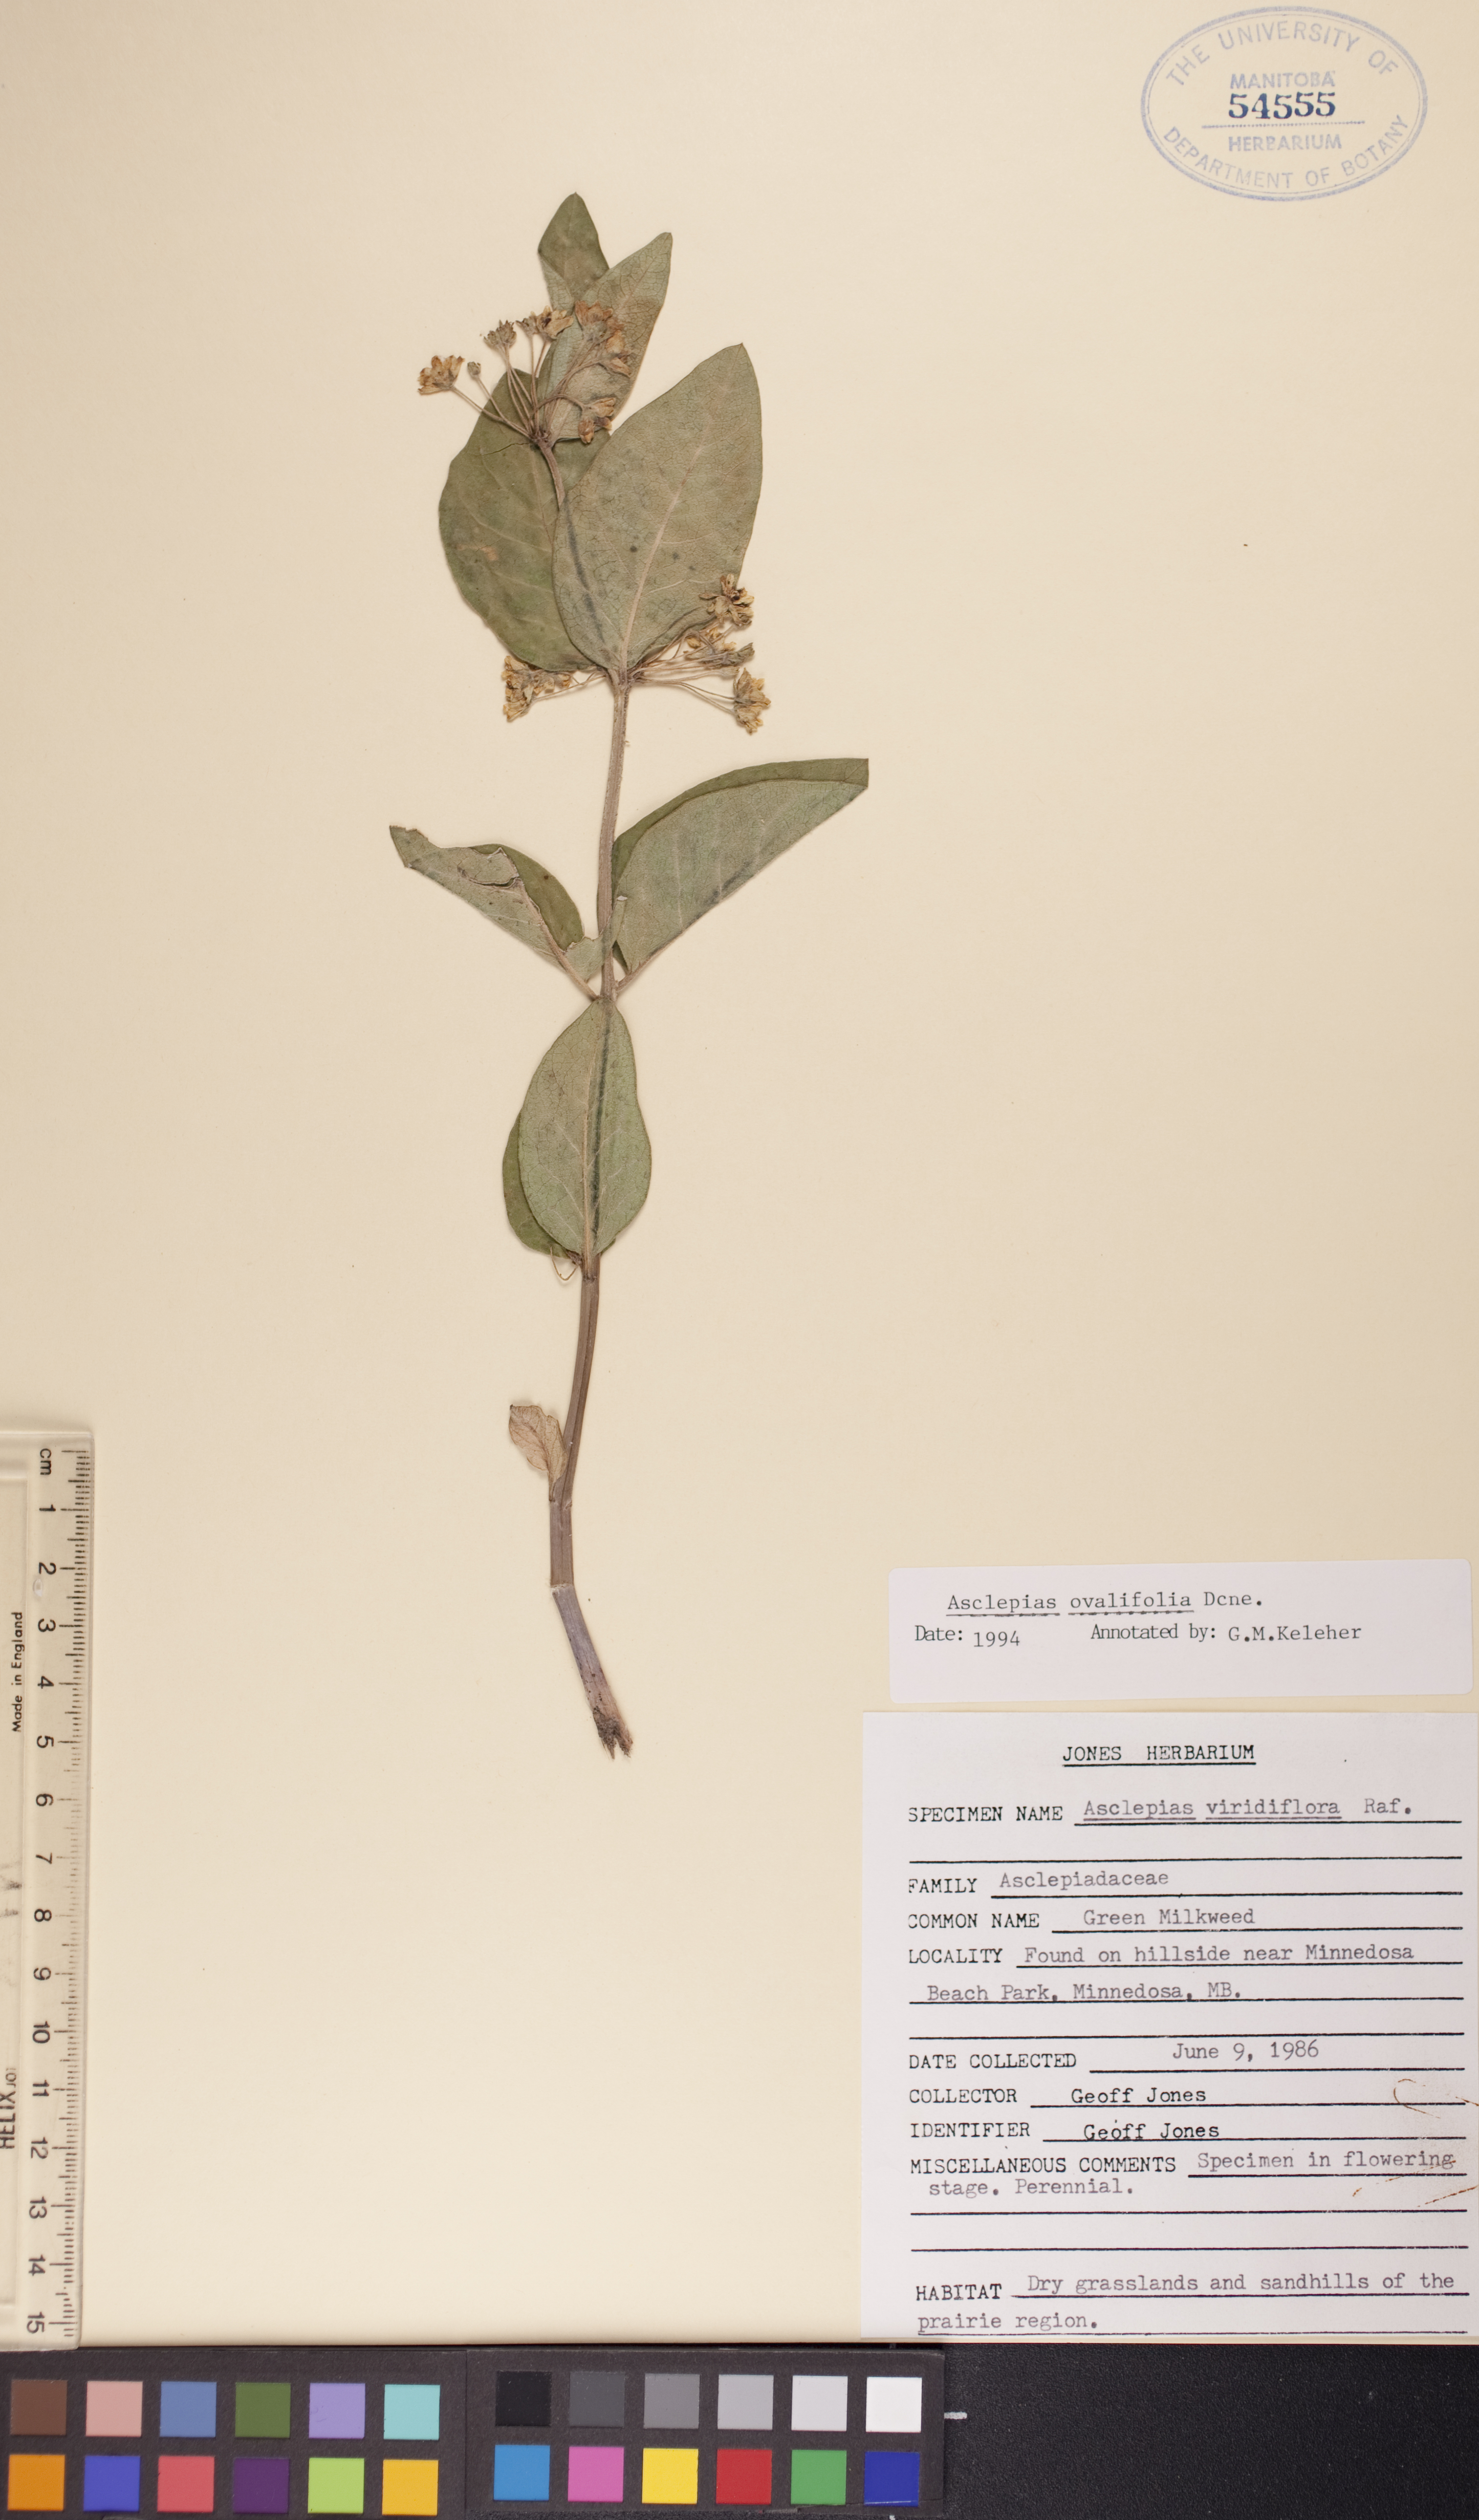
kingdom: Plantae
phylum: Tracheophyta
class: Magnoliopsida
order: Gentianales
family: Apocynaceae
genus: Asclepias
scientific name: Asclepias ovalifolia
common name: Dwarf milkweed
